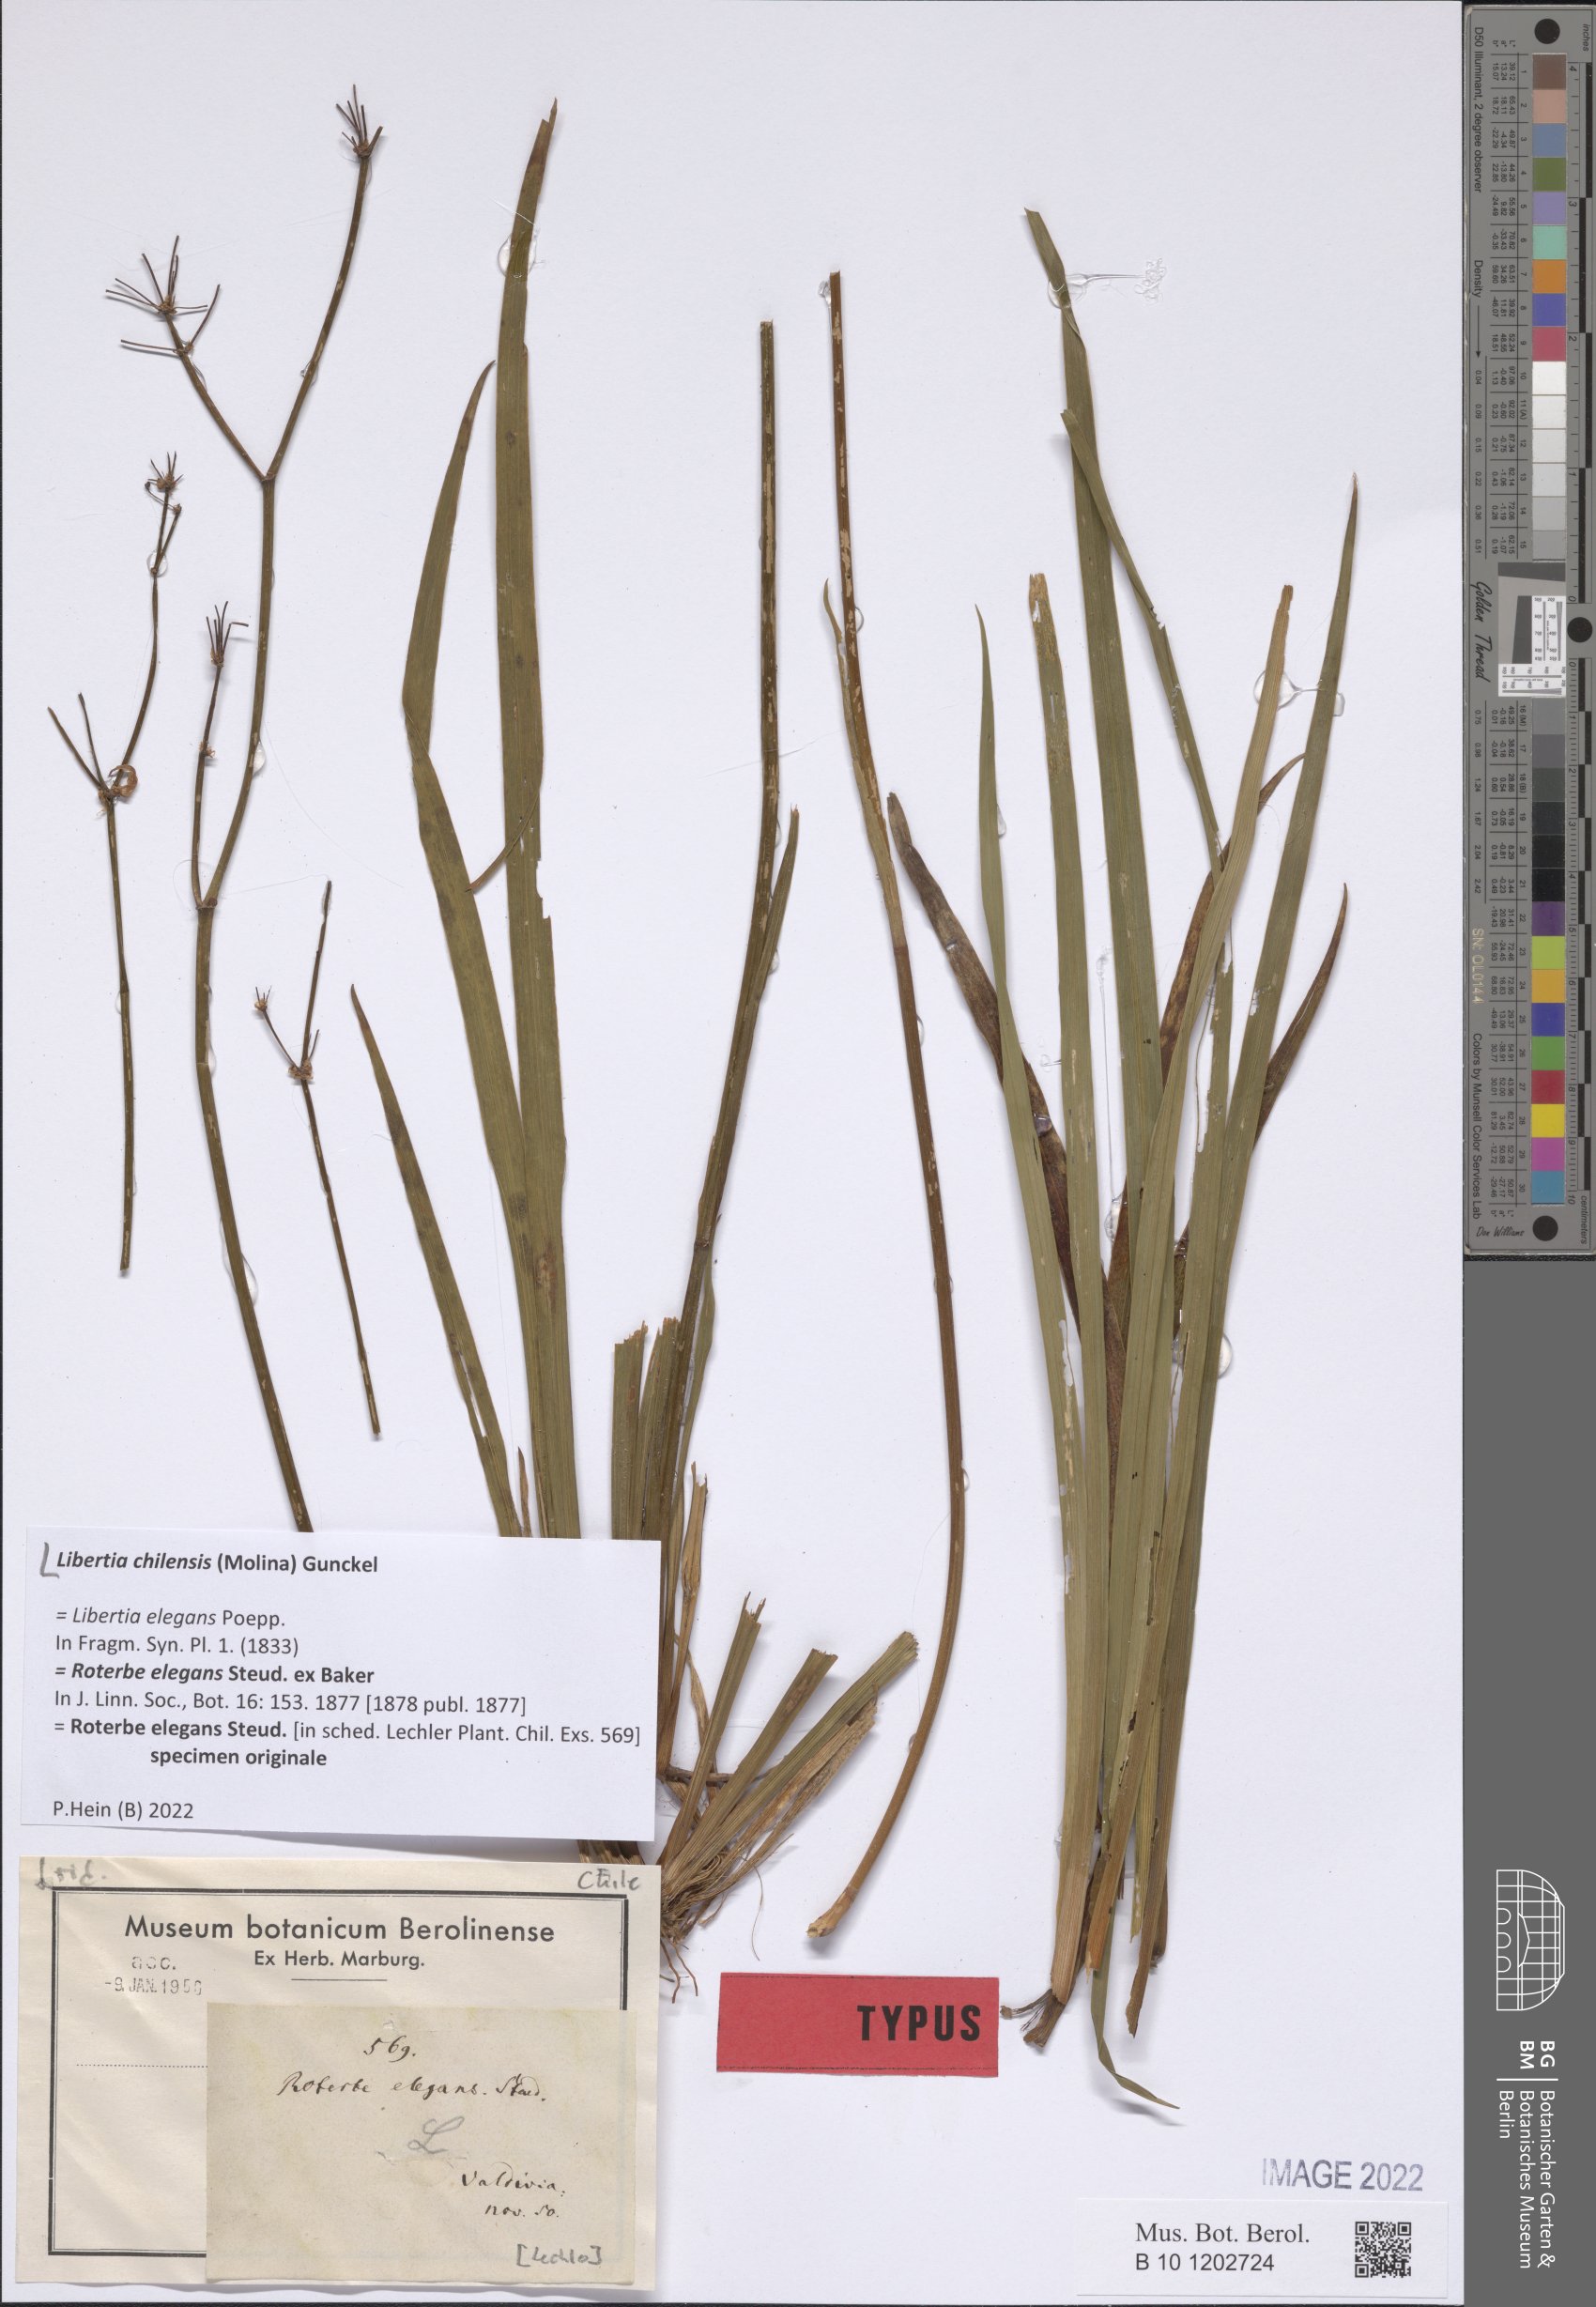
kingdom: Plantae
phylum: Tracheophyta
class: Liliopsida
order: Asparagales
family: Iridaceae
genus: Libertia
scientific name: Libertia chilensis
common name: Satin flower
